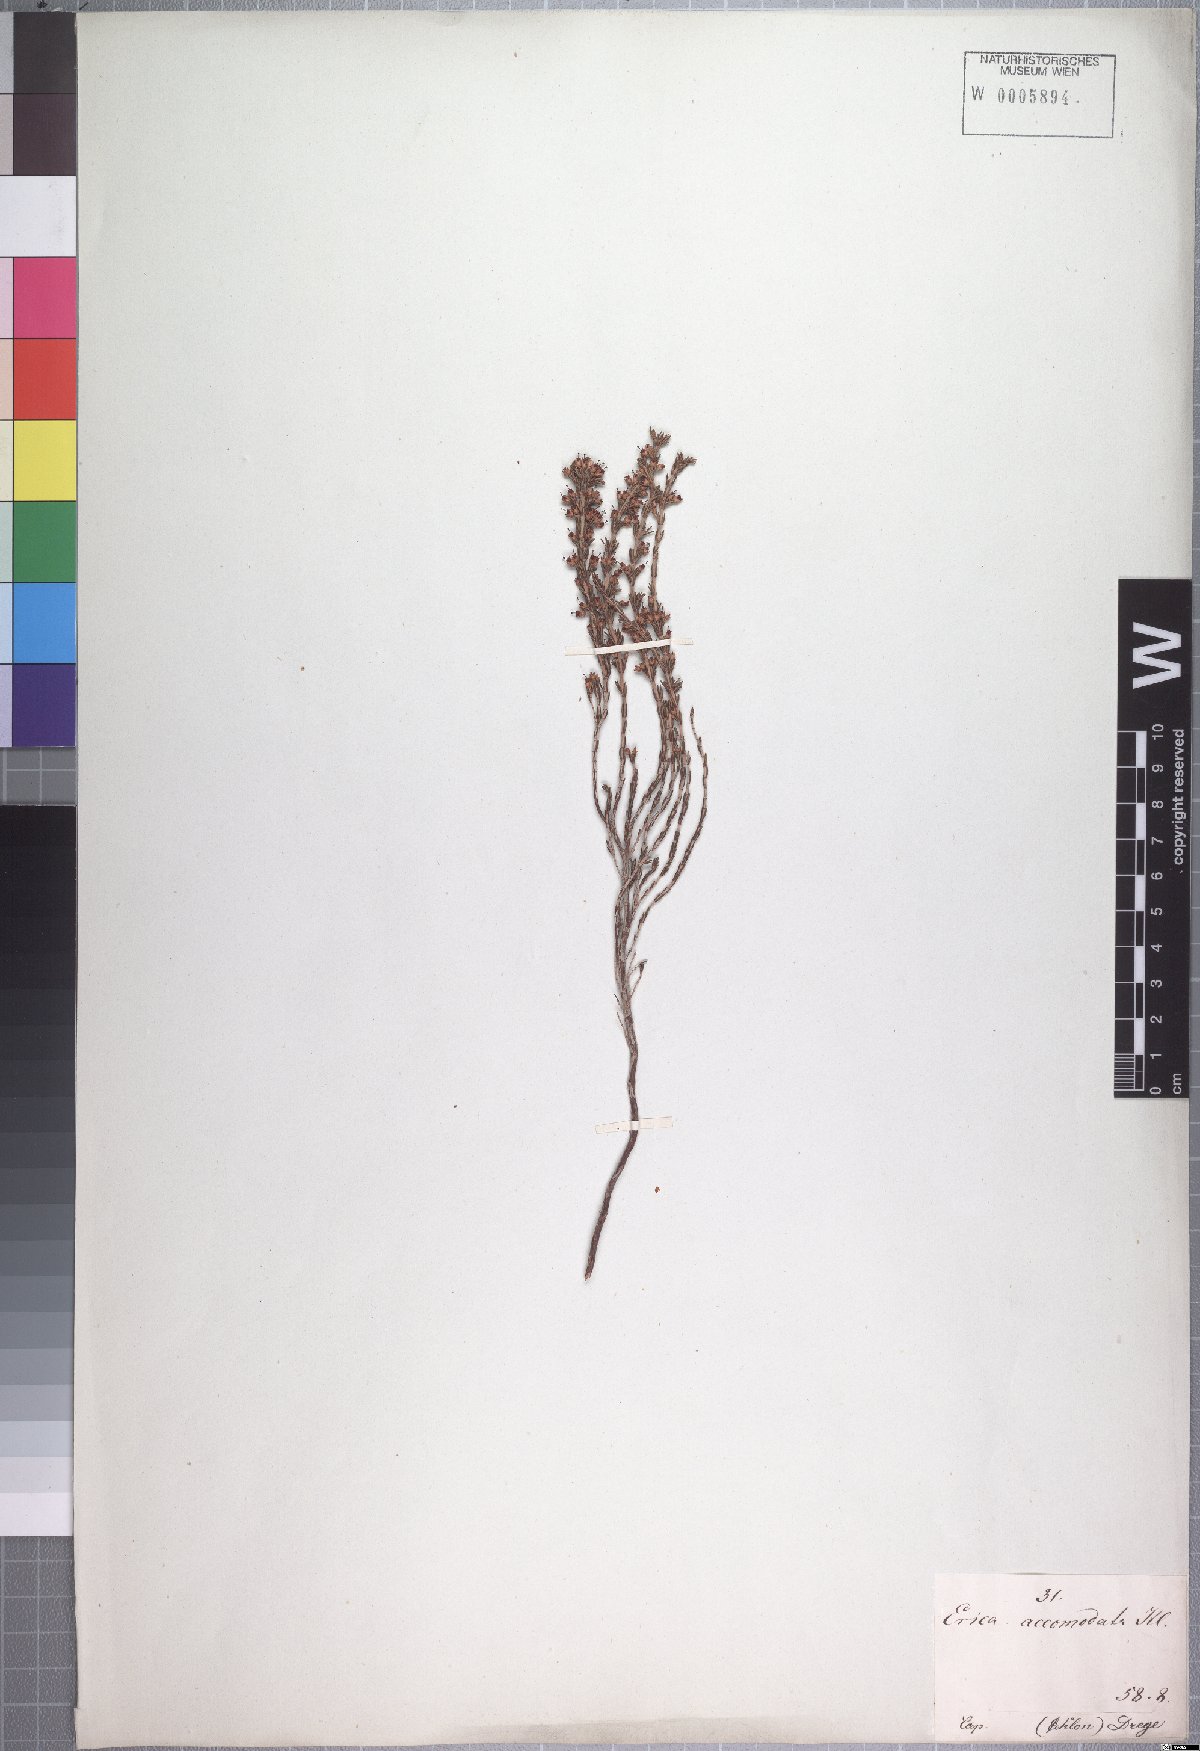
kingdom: Plantae
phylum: Tracheophyta
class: Magnoliopsida
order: Ericales
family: Ericaceae
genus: Erica
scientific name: Erica accommodata
